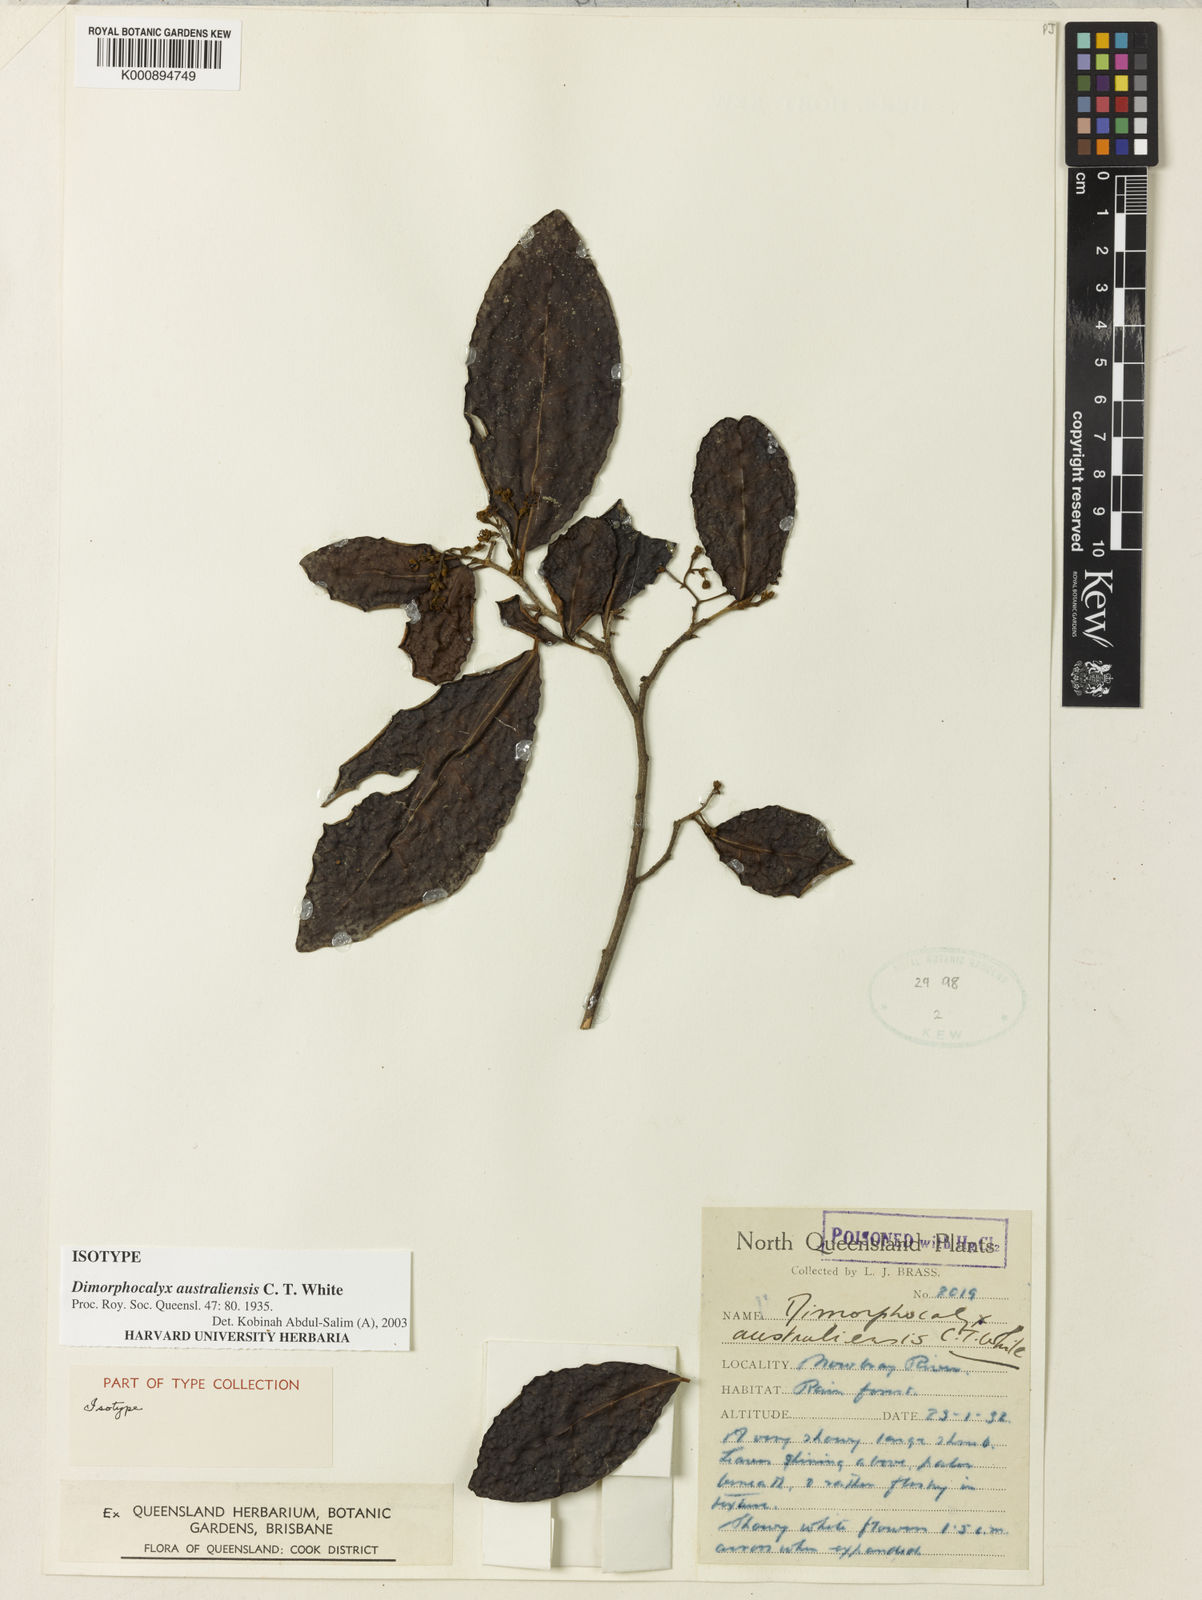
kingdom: Plantae
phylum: Tracheophyta
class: Magnoliopsida
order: Malpighiales
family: Euphorbiaceae
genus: Tritaxis
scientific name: Tritaxis australiensis
